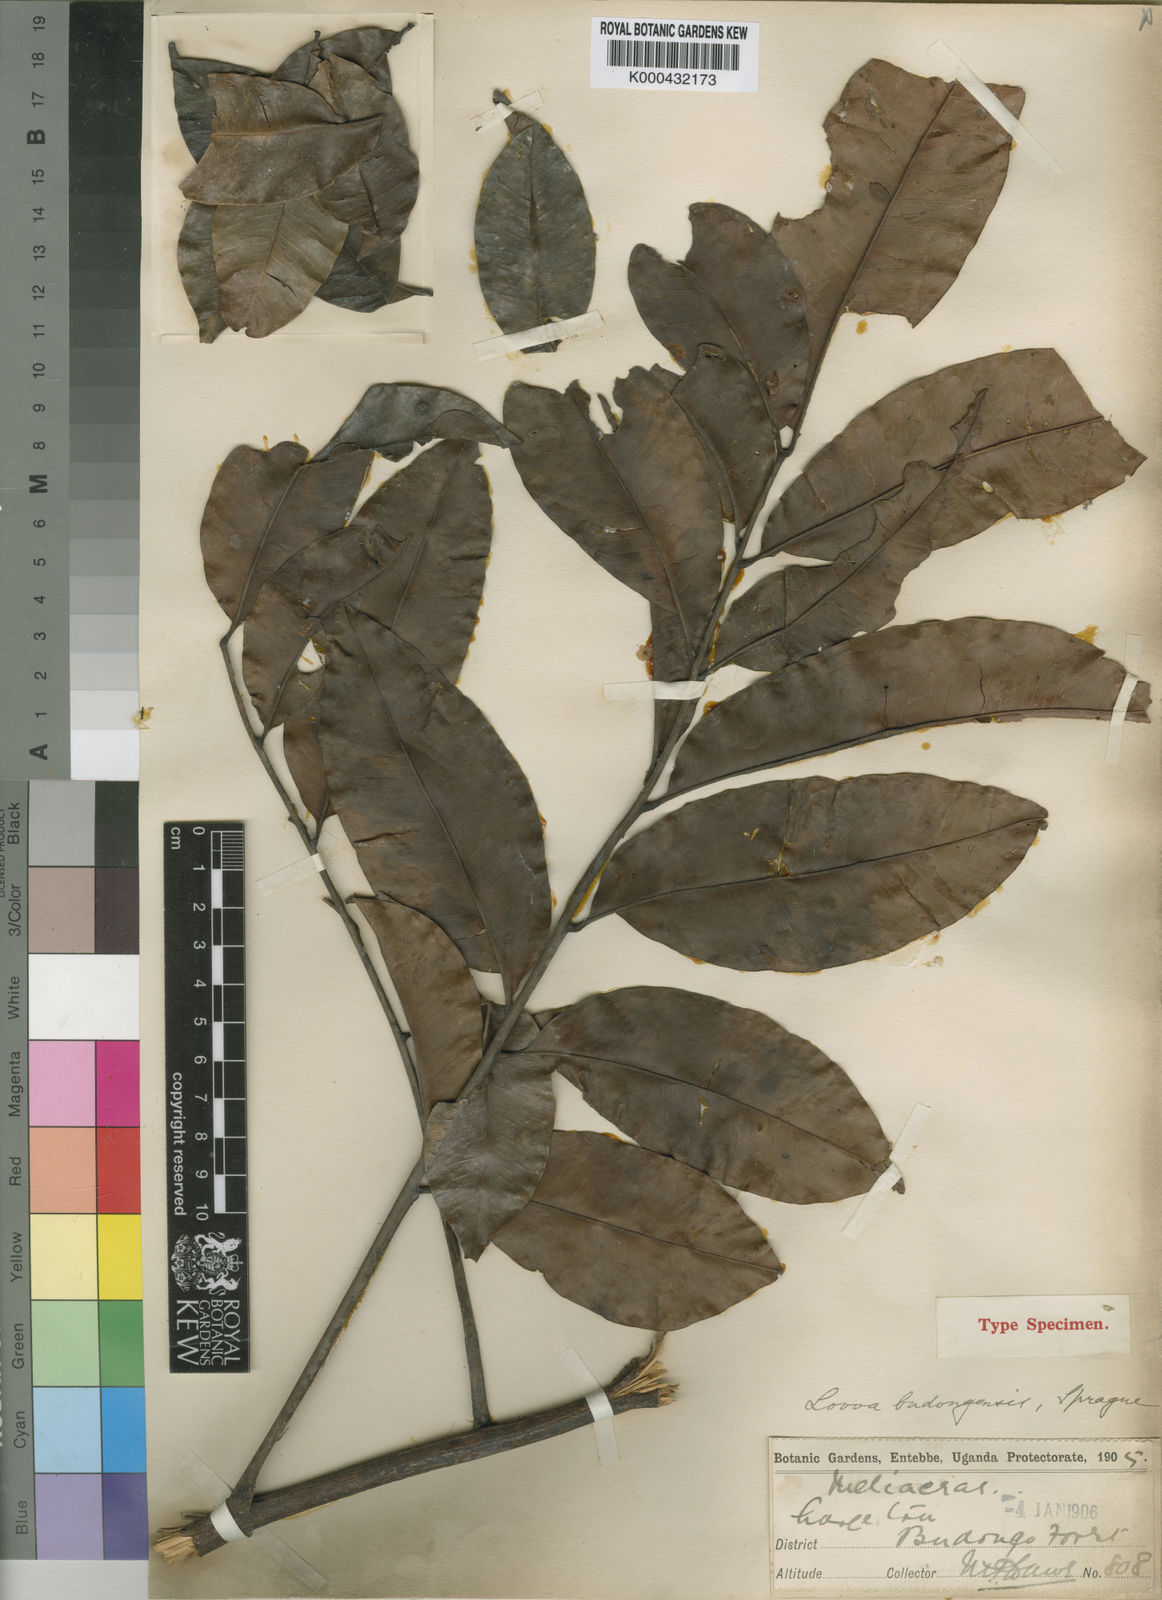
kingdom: Plantae
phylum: Tracheophyta
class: Magnoliopsida
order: Sapindales
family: Meliaceae
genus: Lovoa
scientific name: Lovoa trichilioides
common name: Congowood
